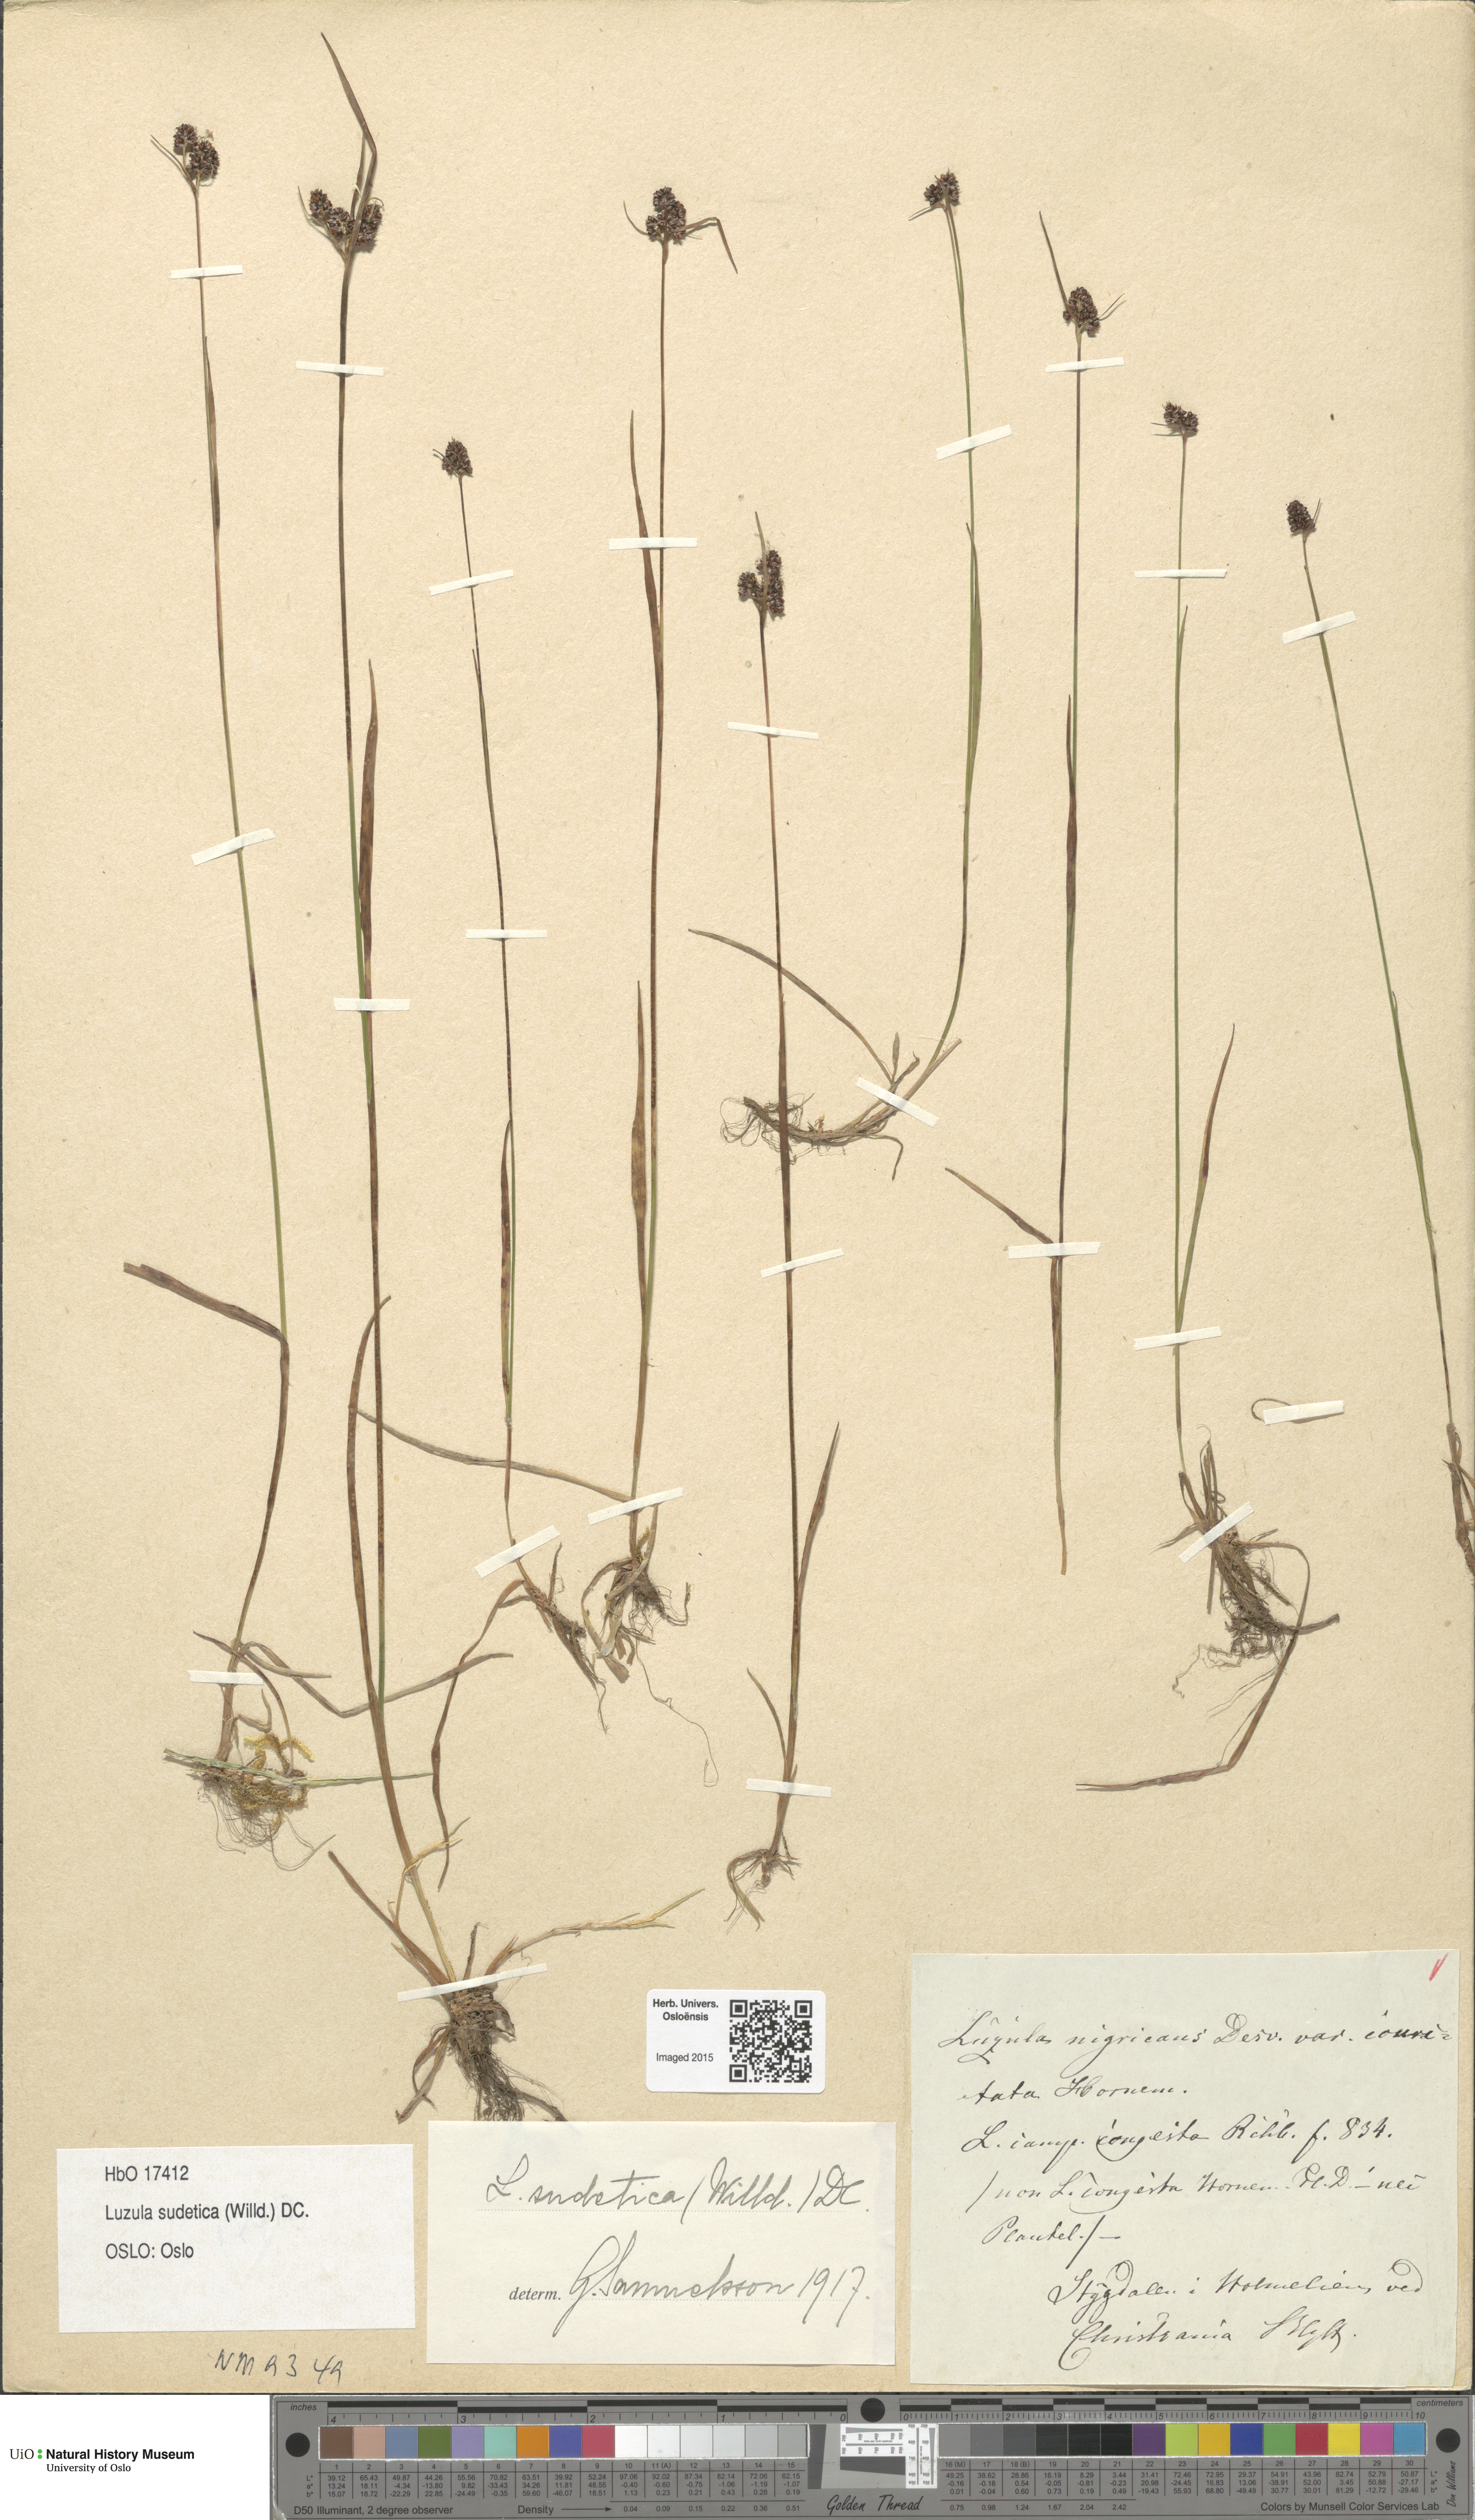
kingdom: Plantae
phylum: Tracheophyta
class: Liliopsida
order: Poales
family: Juncaceae
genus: Luzula
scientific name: Luzula sudetica
